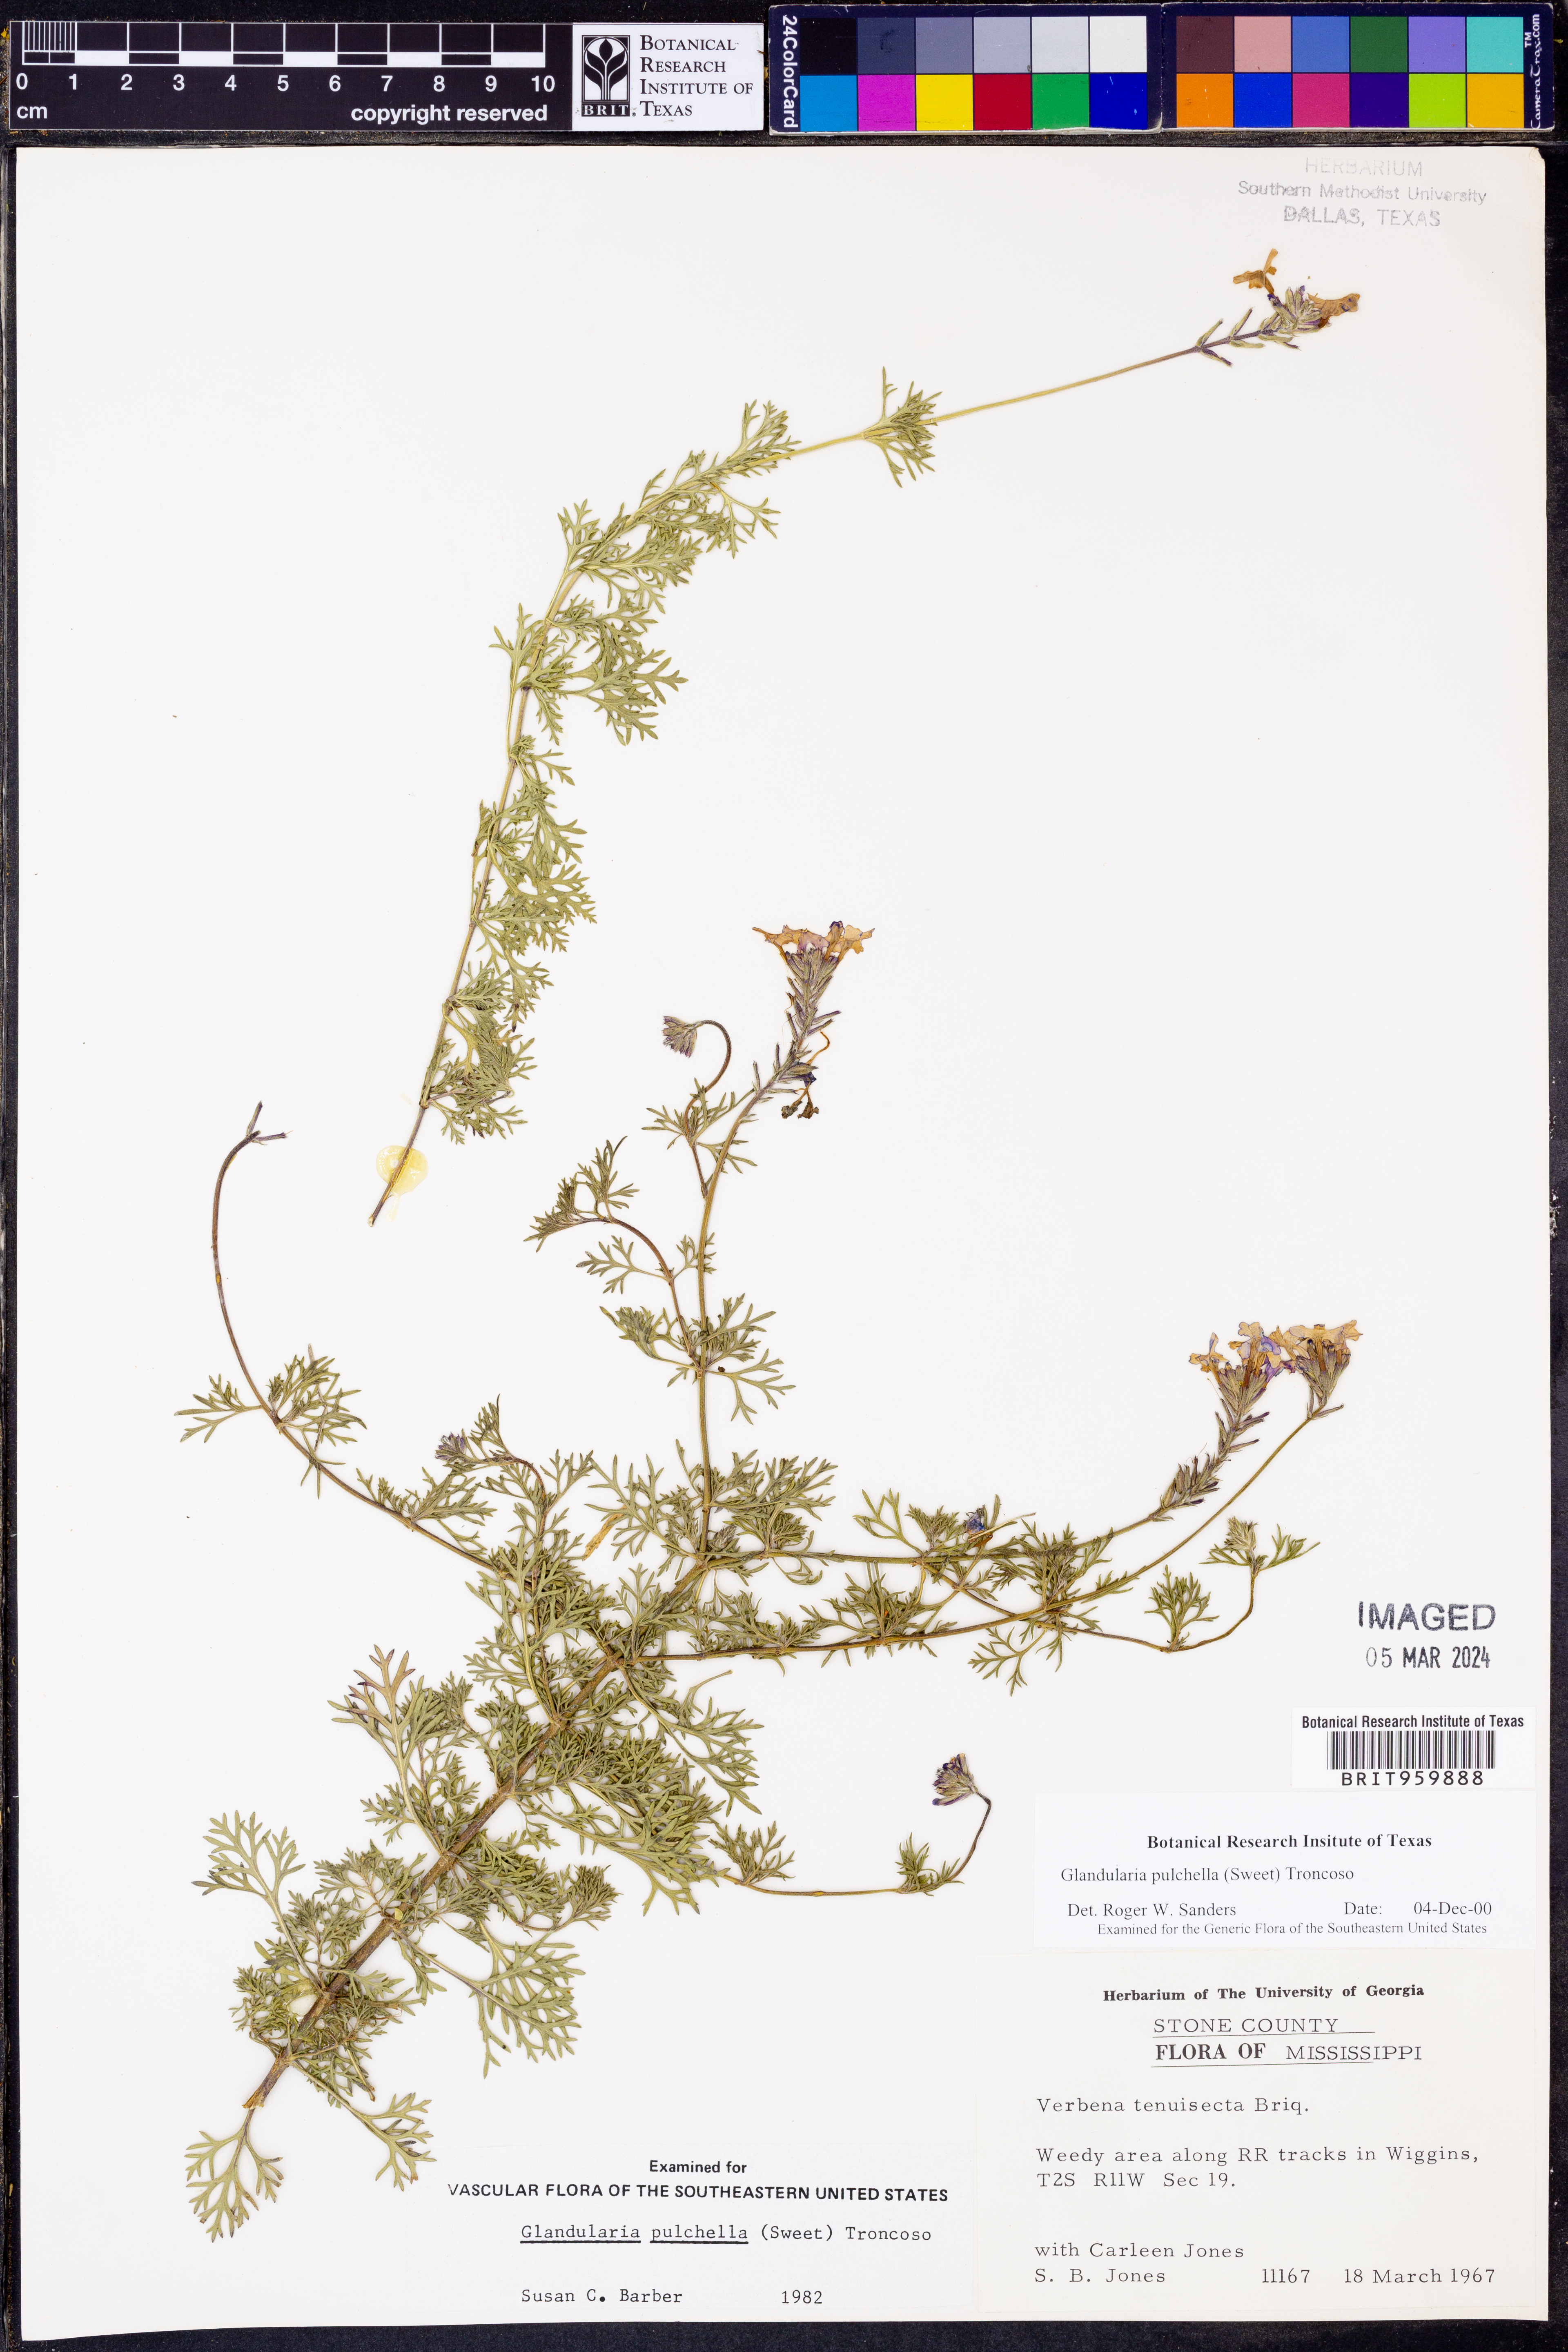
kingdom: Plantae
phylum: Tracheophyta
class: Magnoliopsida
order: Lamiales
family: Verbenaceae
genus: Verbena
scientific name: Verbena tenera
